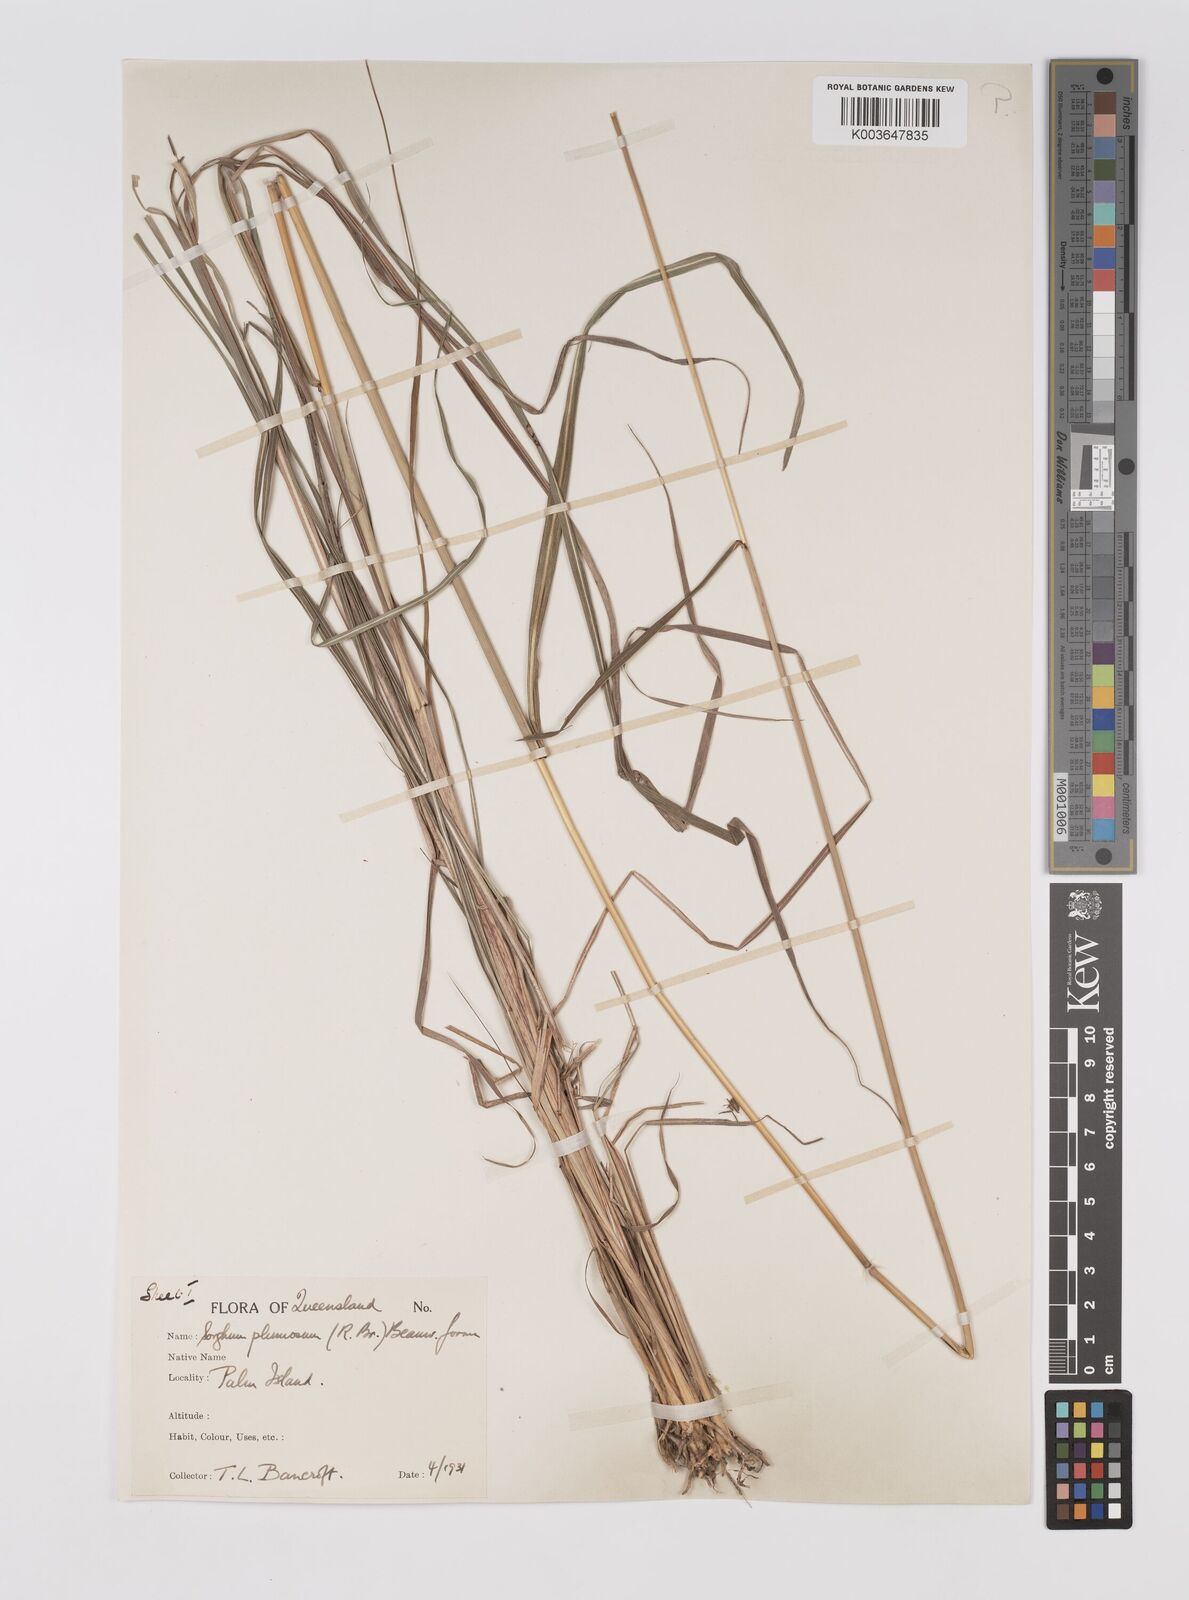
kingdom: Plantae
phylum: Tracheophyta
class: Liliopsida
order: Poales
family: Poaceae
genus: Sarga
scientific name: Sarga plumosa
